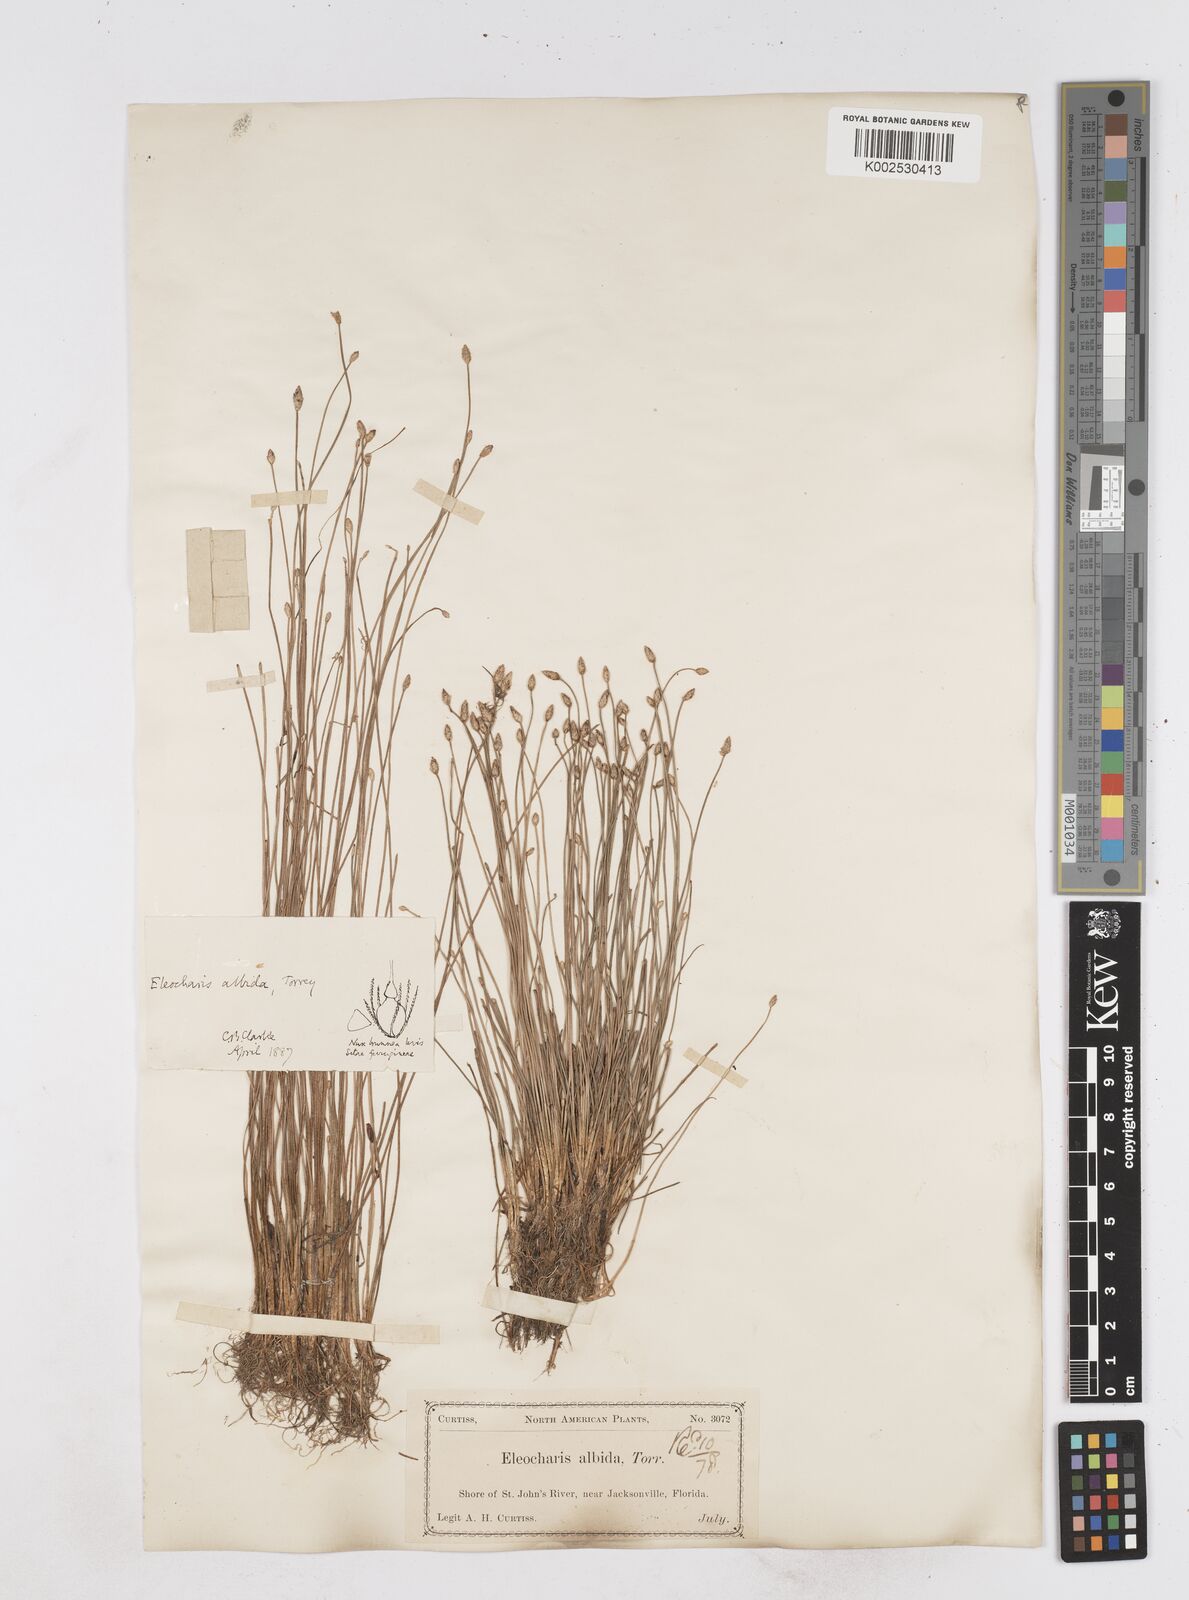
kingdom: Plantae
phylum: Tracheophyta
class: Liliopsida
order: Poales
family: Cyperaceae
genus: Eleocharis
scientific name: Eleocharis albida
